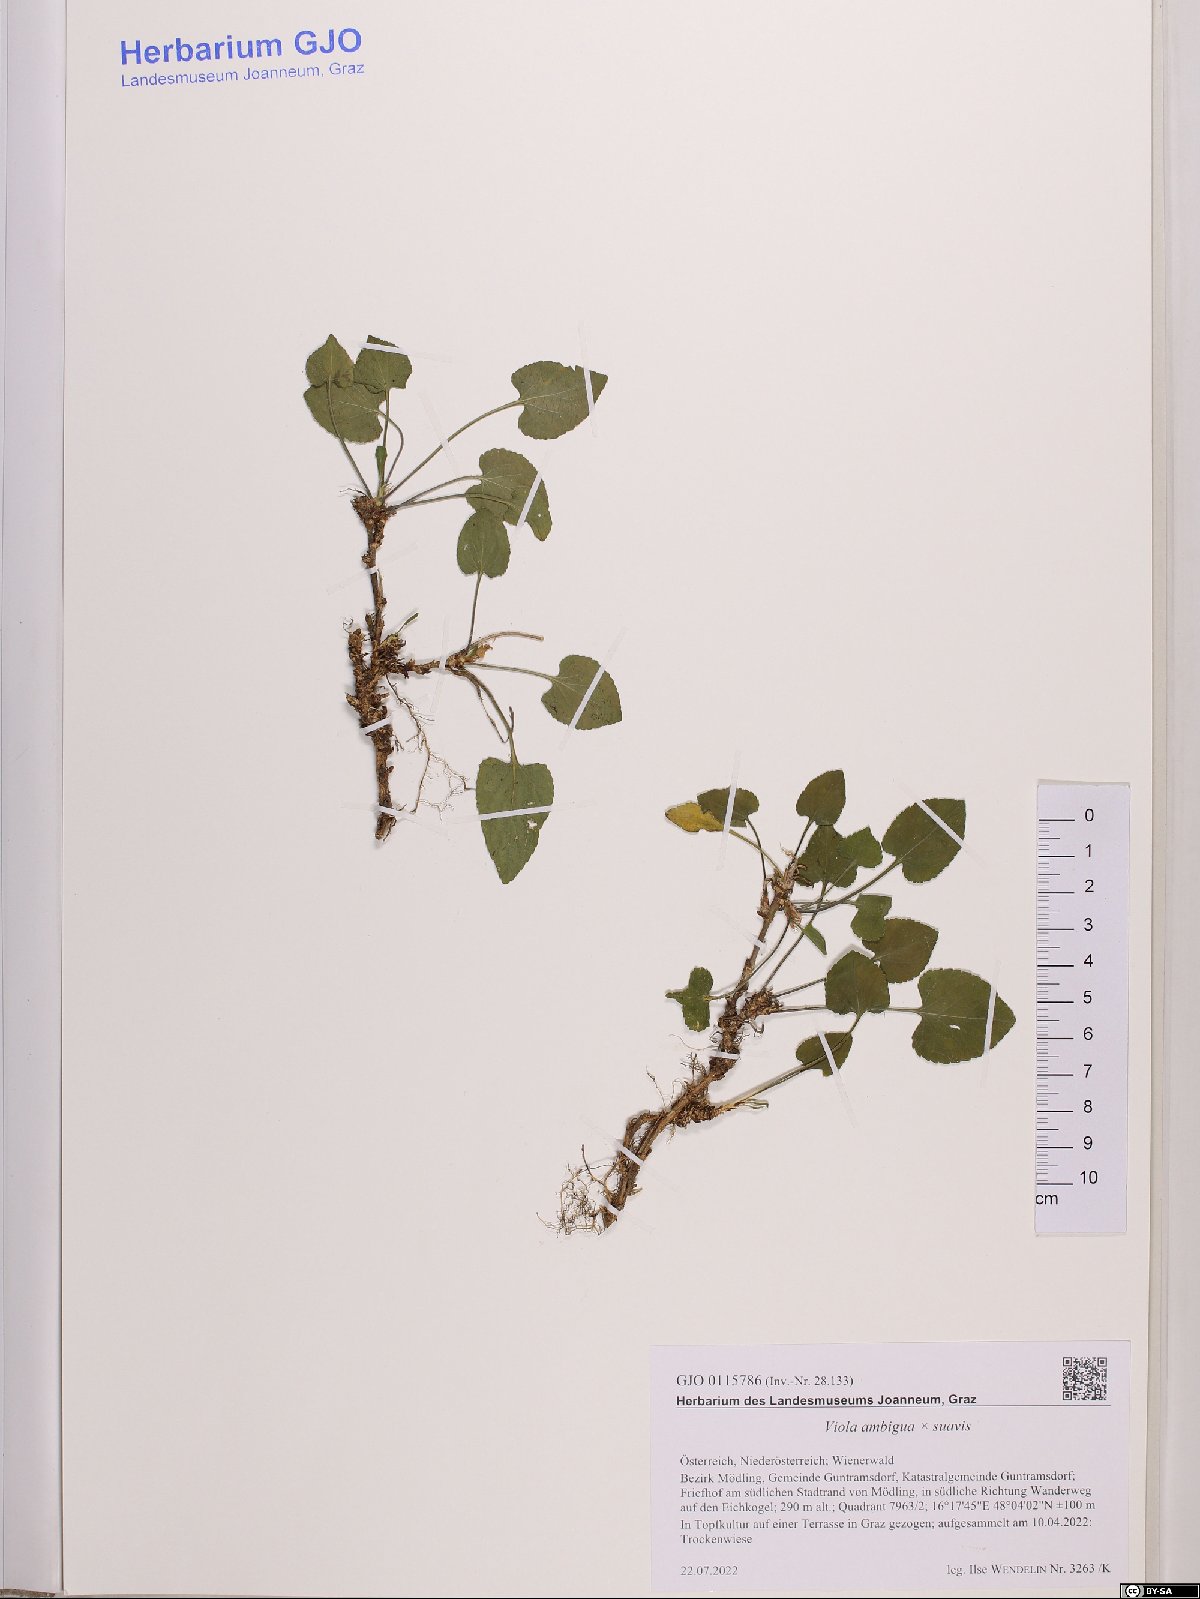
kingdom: Plantae
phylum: Tracheophyta
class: Magnoliopsida
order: Malpighiales
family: Violaceae
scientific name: Violaceae
